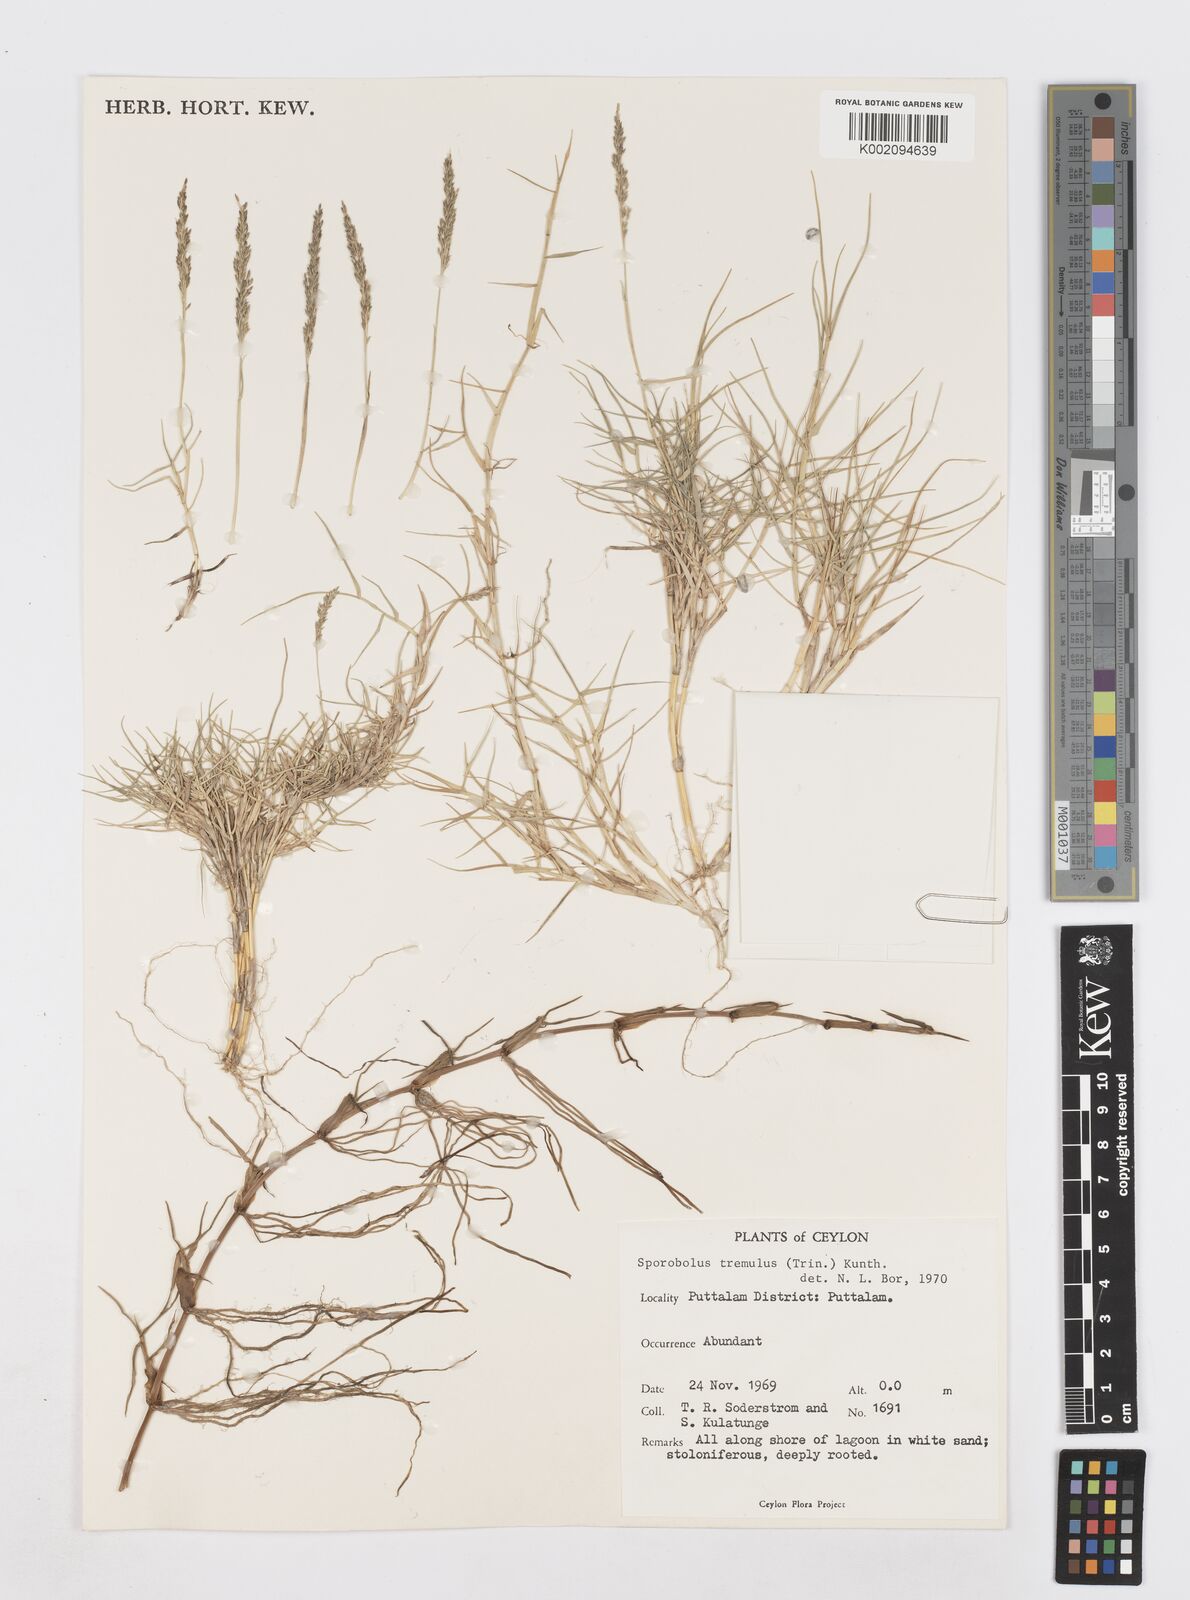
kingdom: Plantae
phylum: Tracheophyta
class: Liliopsida
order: Poales
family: Poaceae
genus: Sporobolus
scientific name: Sporobolus virginicus
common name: Beach dropseed
